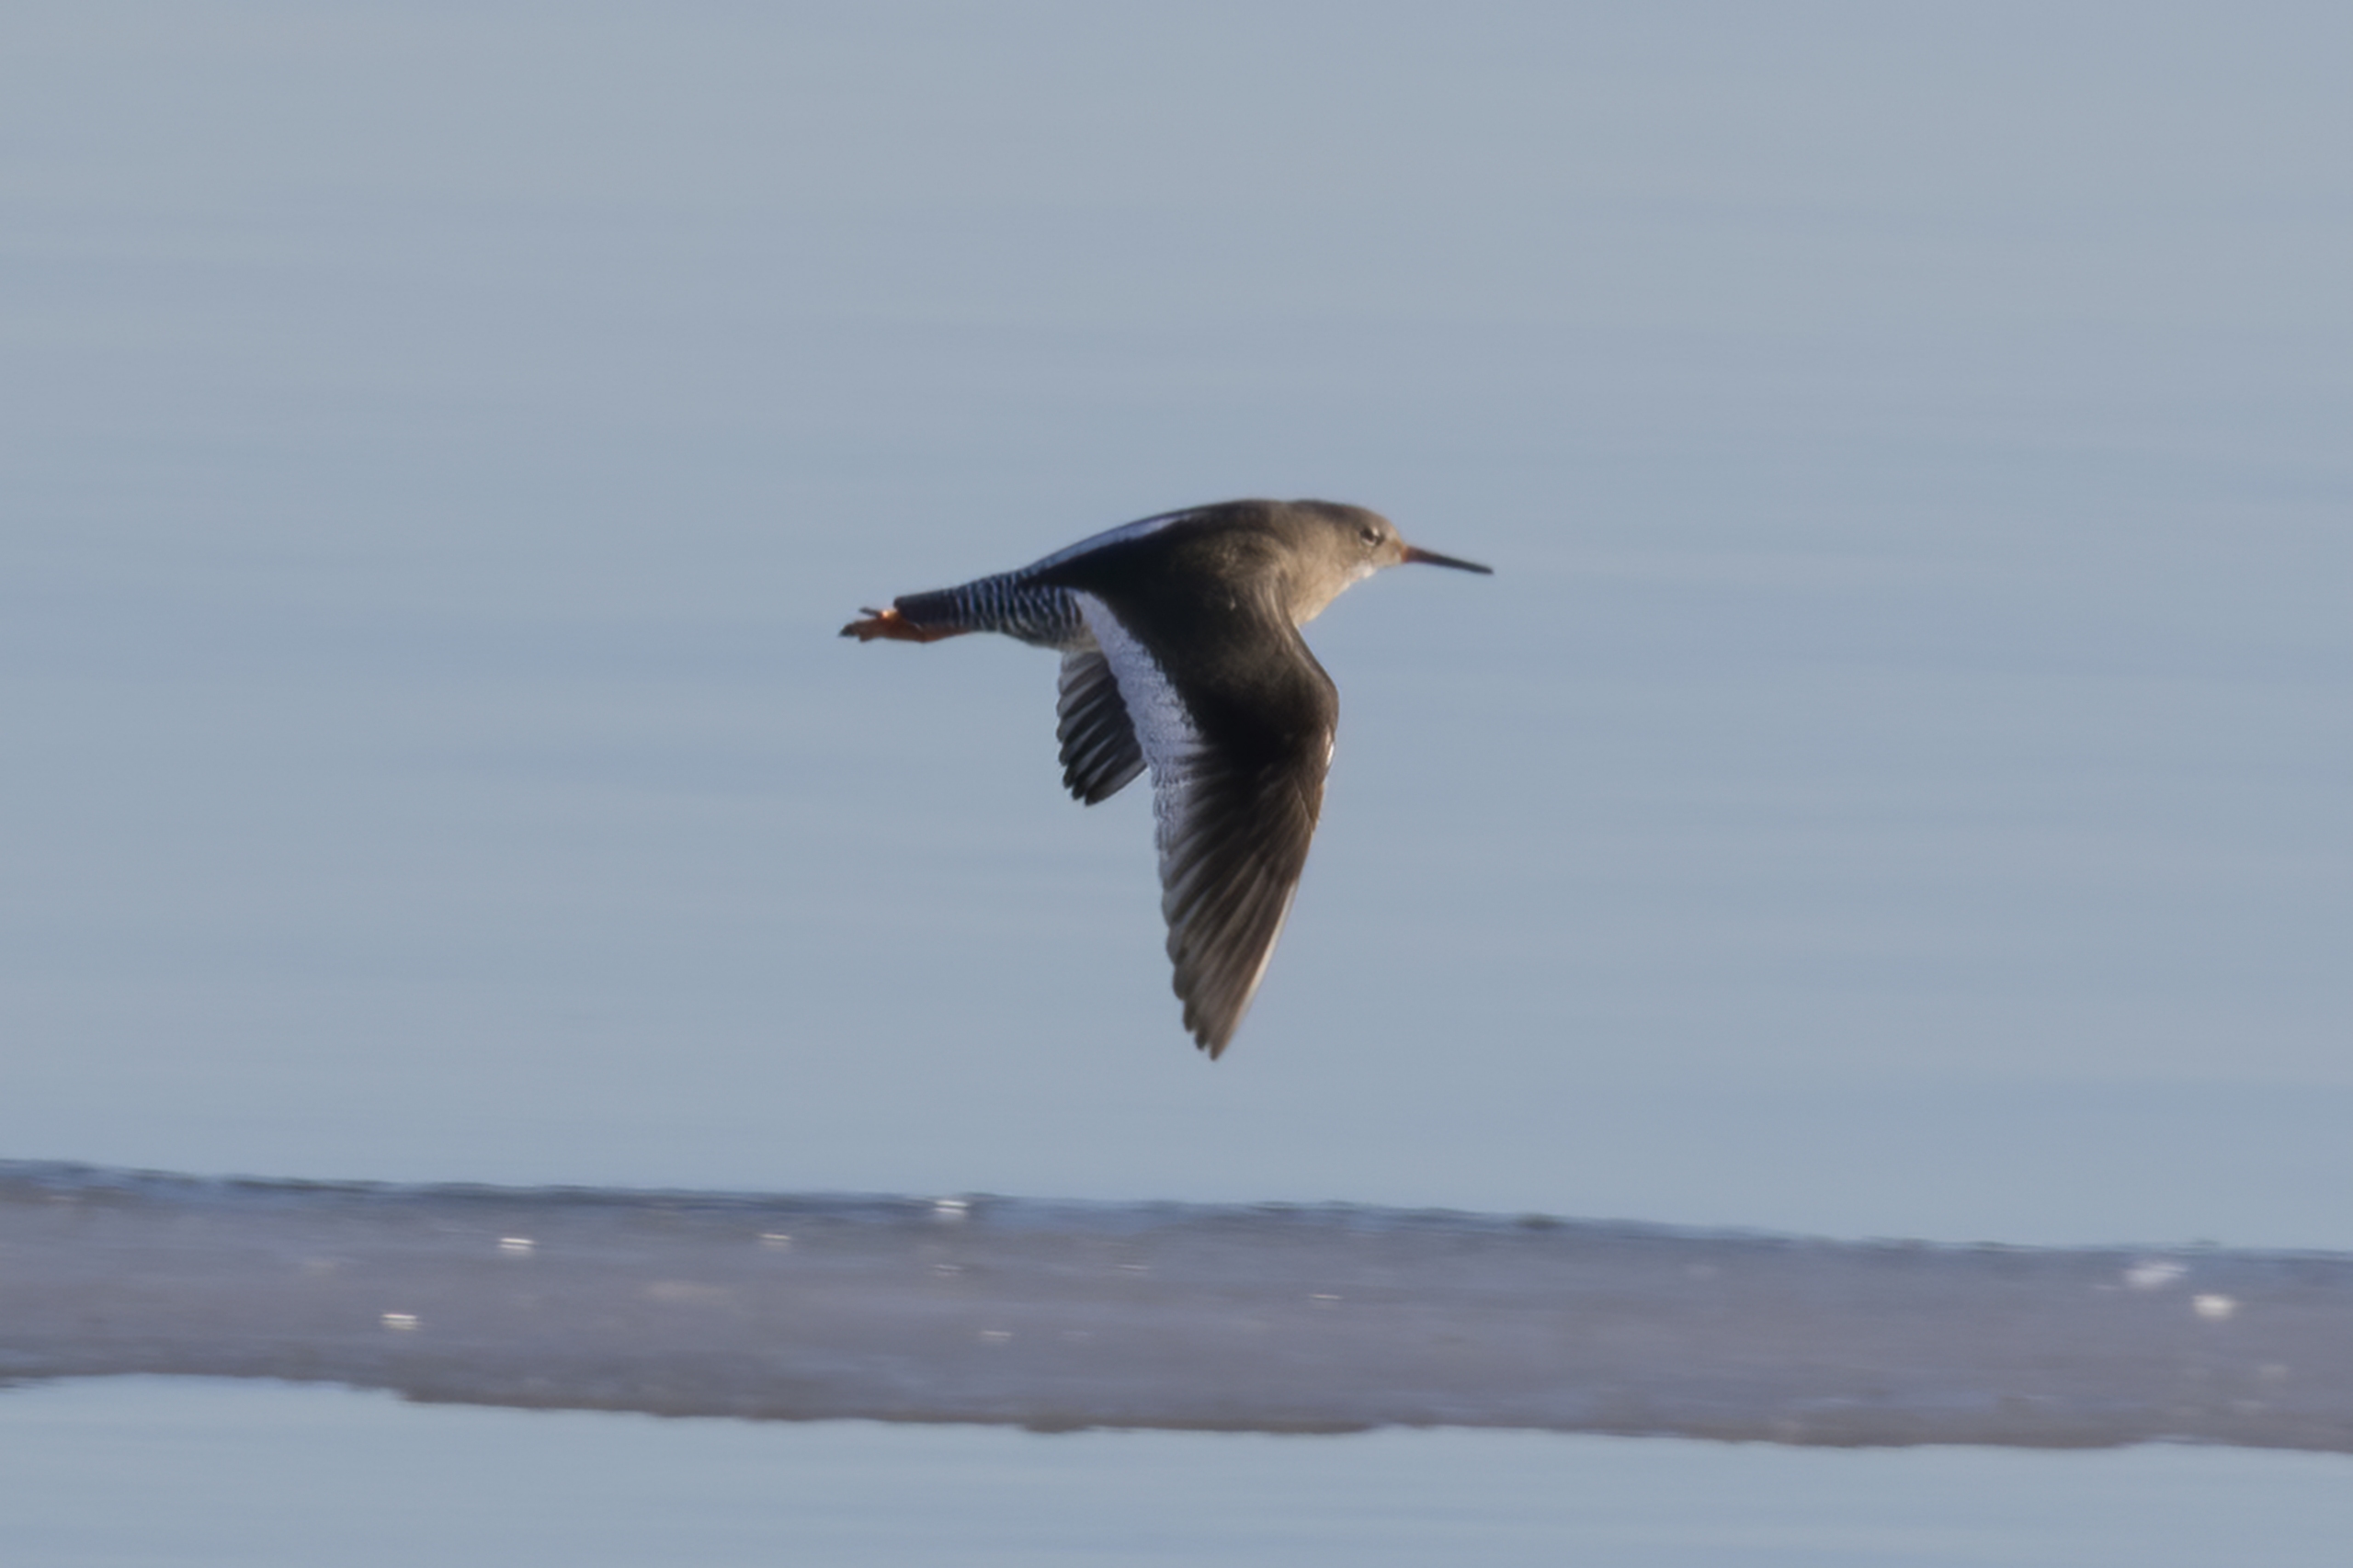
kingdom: Animalia
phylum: Chordata
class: Aves
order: Charadriiformes
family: Scolopacidae
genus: Tringa
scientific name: Tringa totanus
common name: Rødben
